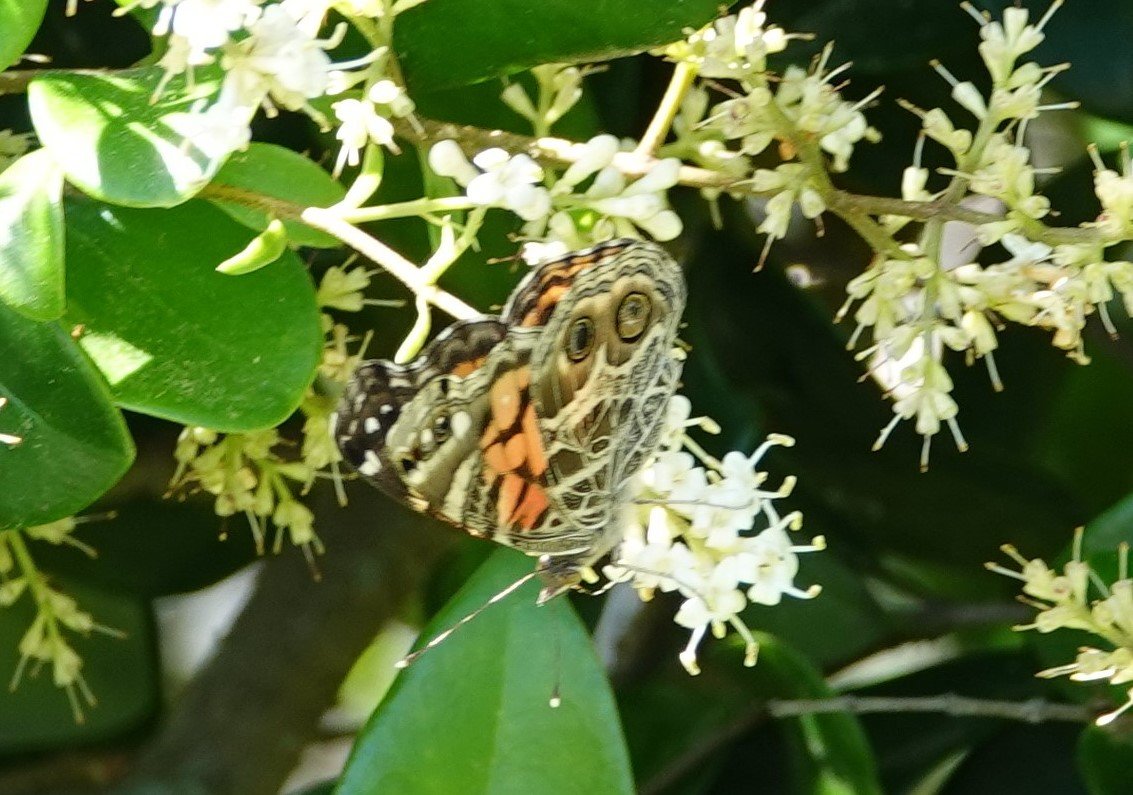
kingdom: Animalia
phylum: Arthropoda
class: Insecta
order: Lepidoptera
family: Nymphalidae
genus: Vanessa
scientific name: Vanessa virginiensis
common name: American Lady
